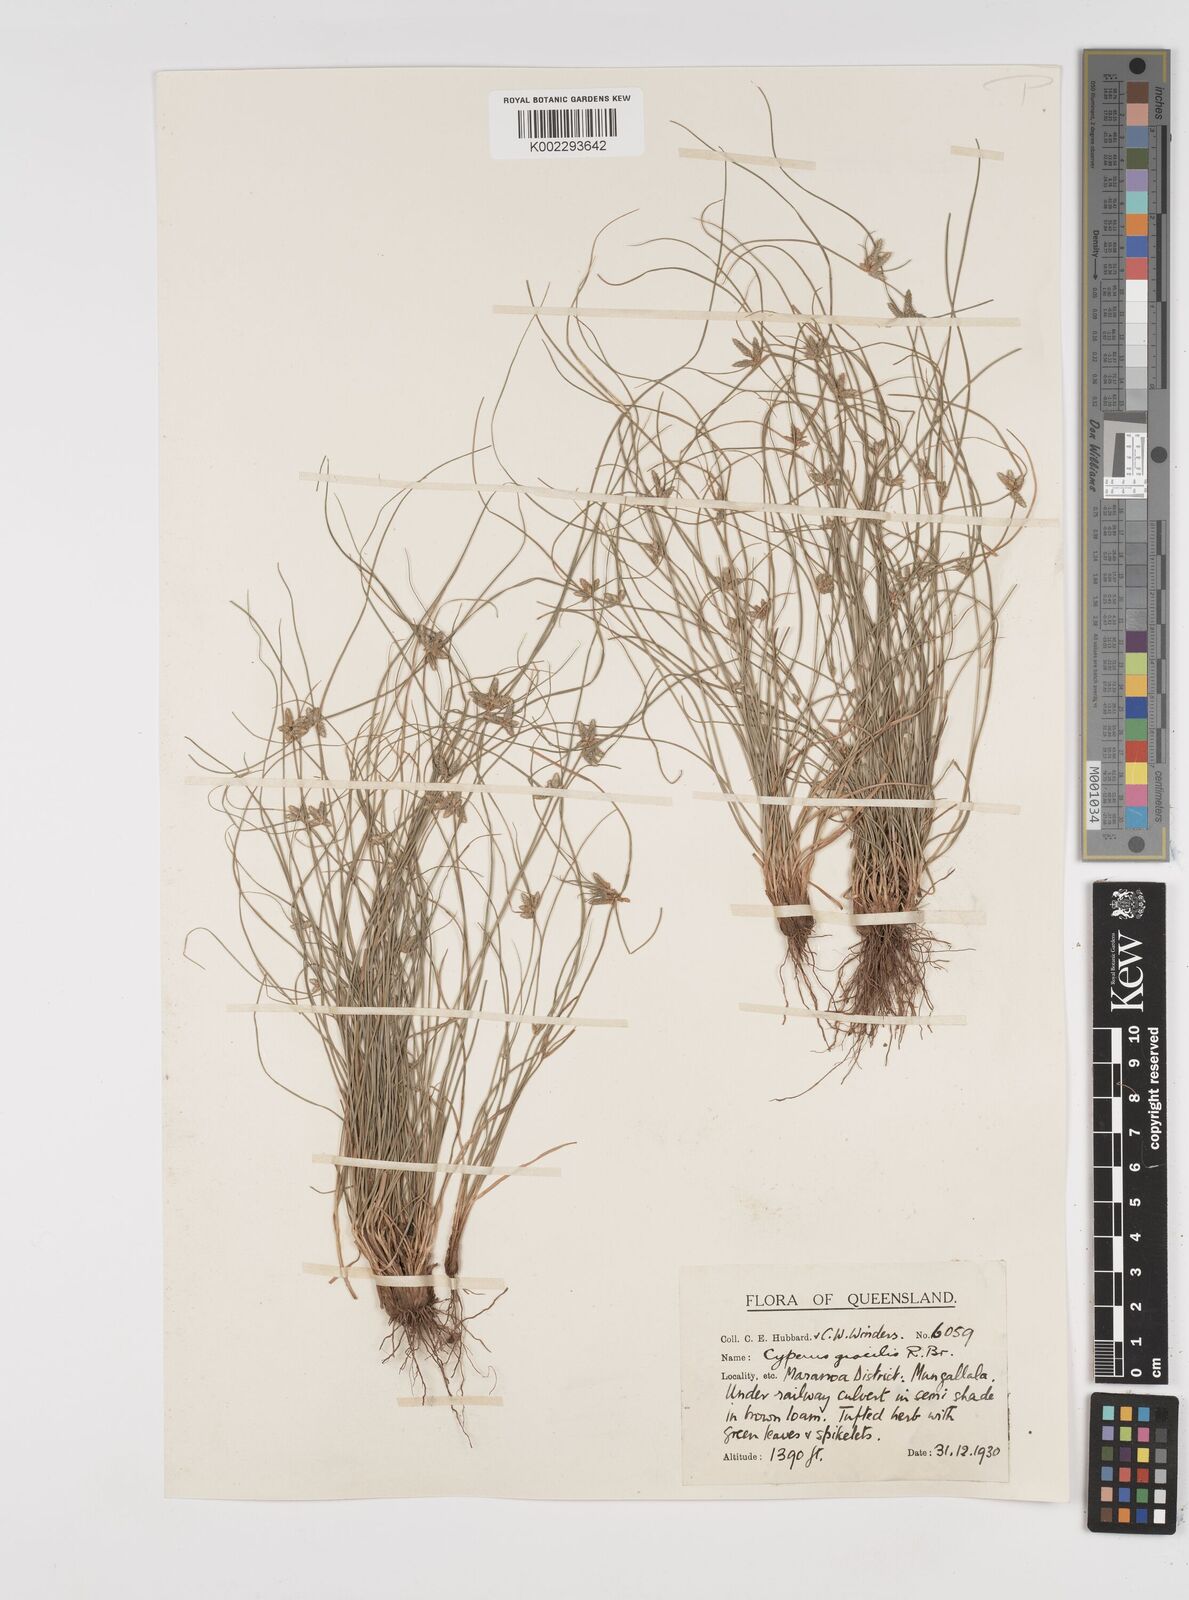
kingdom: Plantae
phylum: Tracheophyta
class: Liliopsida
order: Poales
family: Cyperaceae
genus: Cyperus
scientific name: Cyperus gracilis
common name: Slimjim flatsedge
